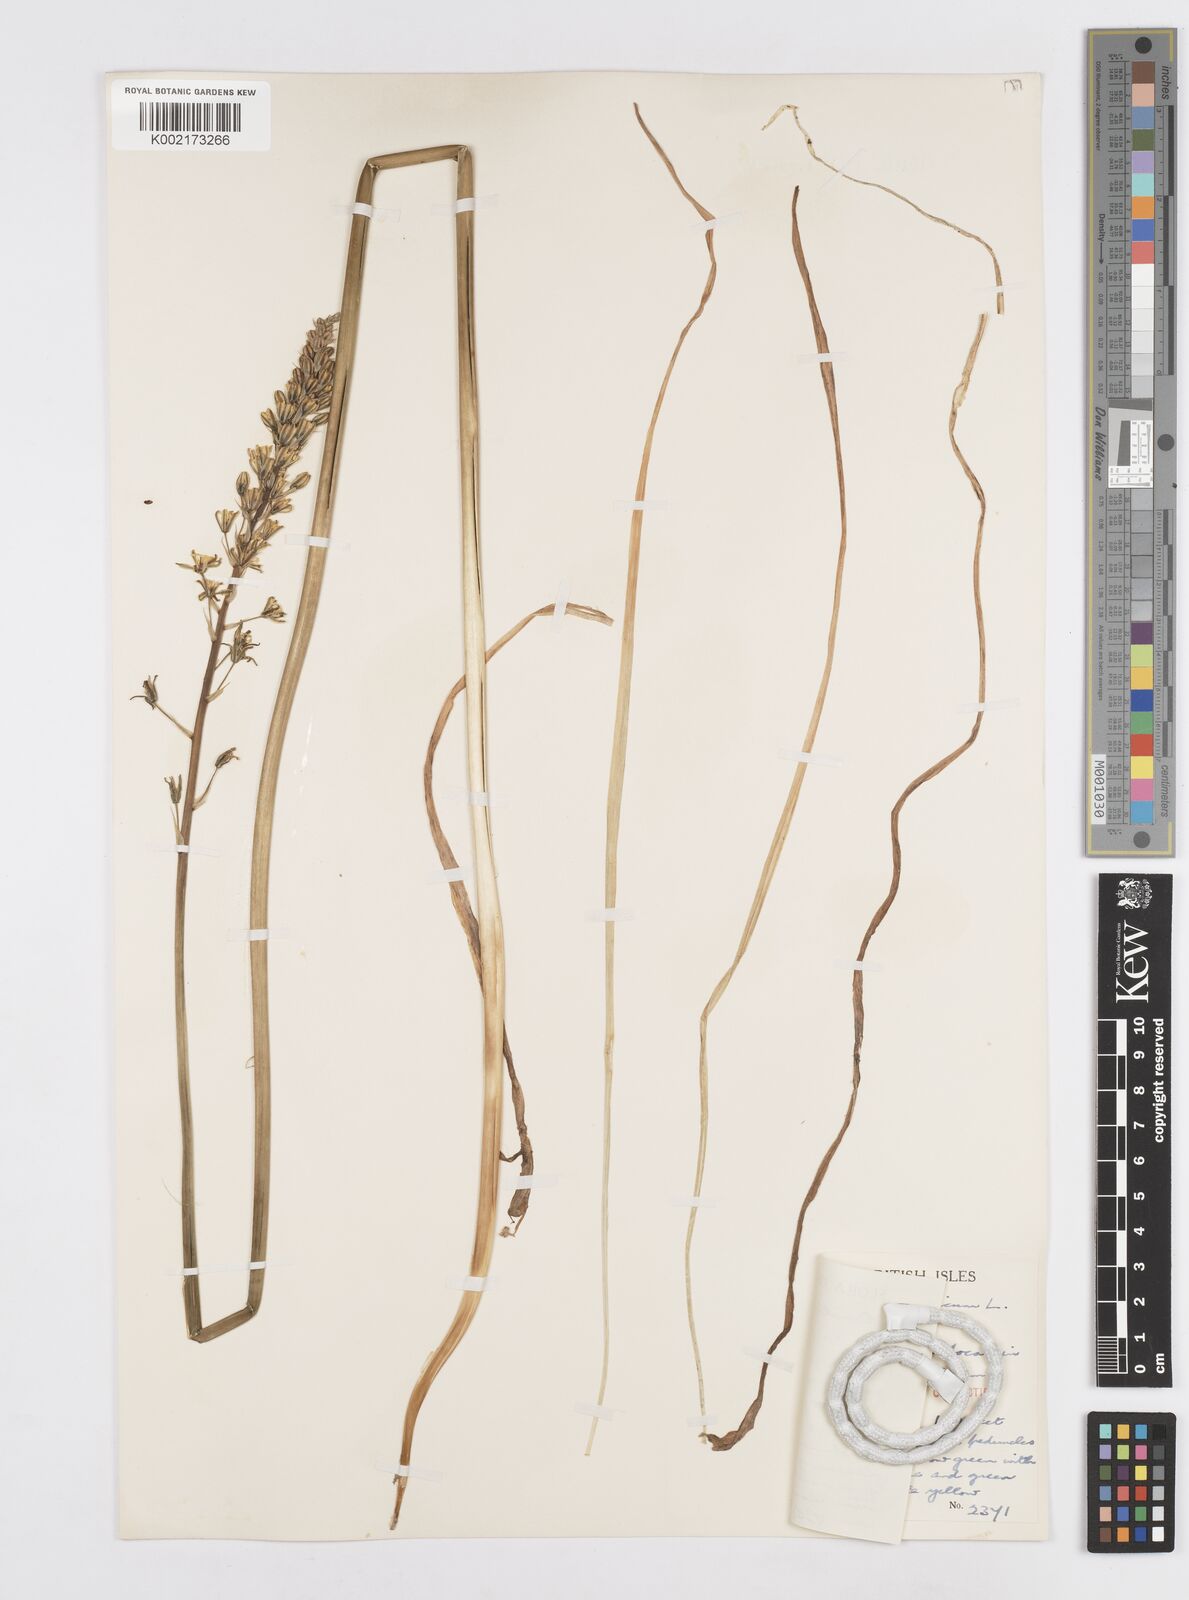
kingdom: Plantae
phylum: Tracheophyta
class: Liliopsida
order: Asparagales
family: Asparagaceae
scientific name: Asparagaceae
